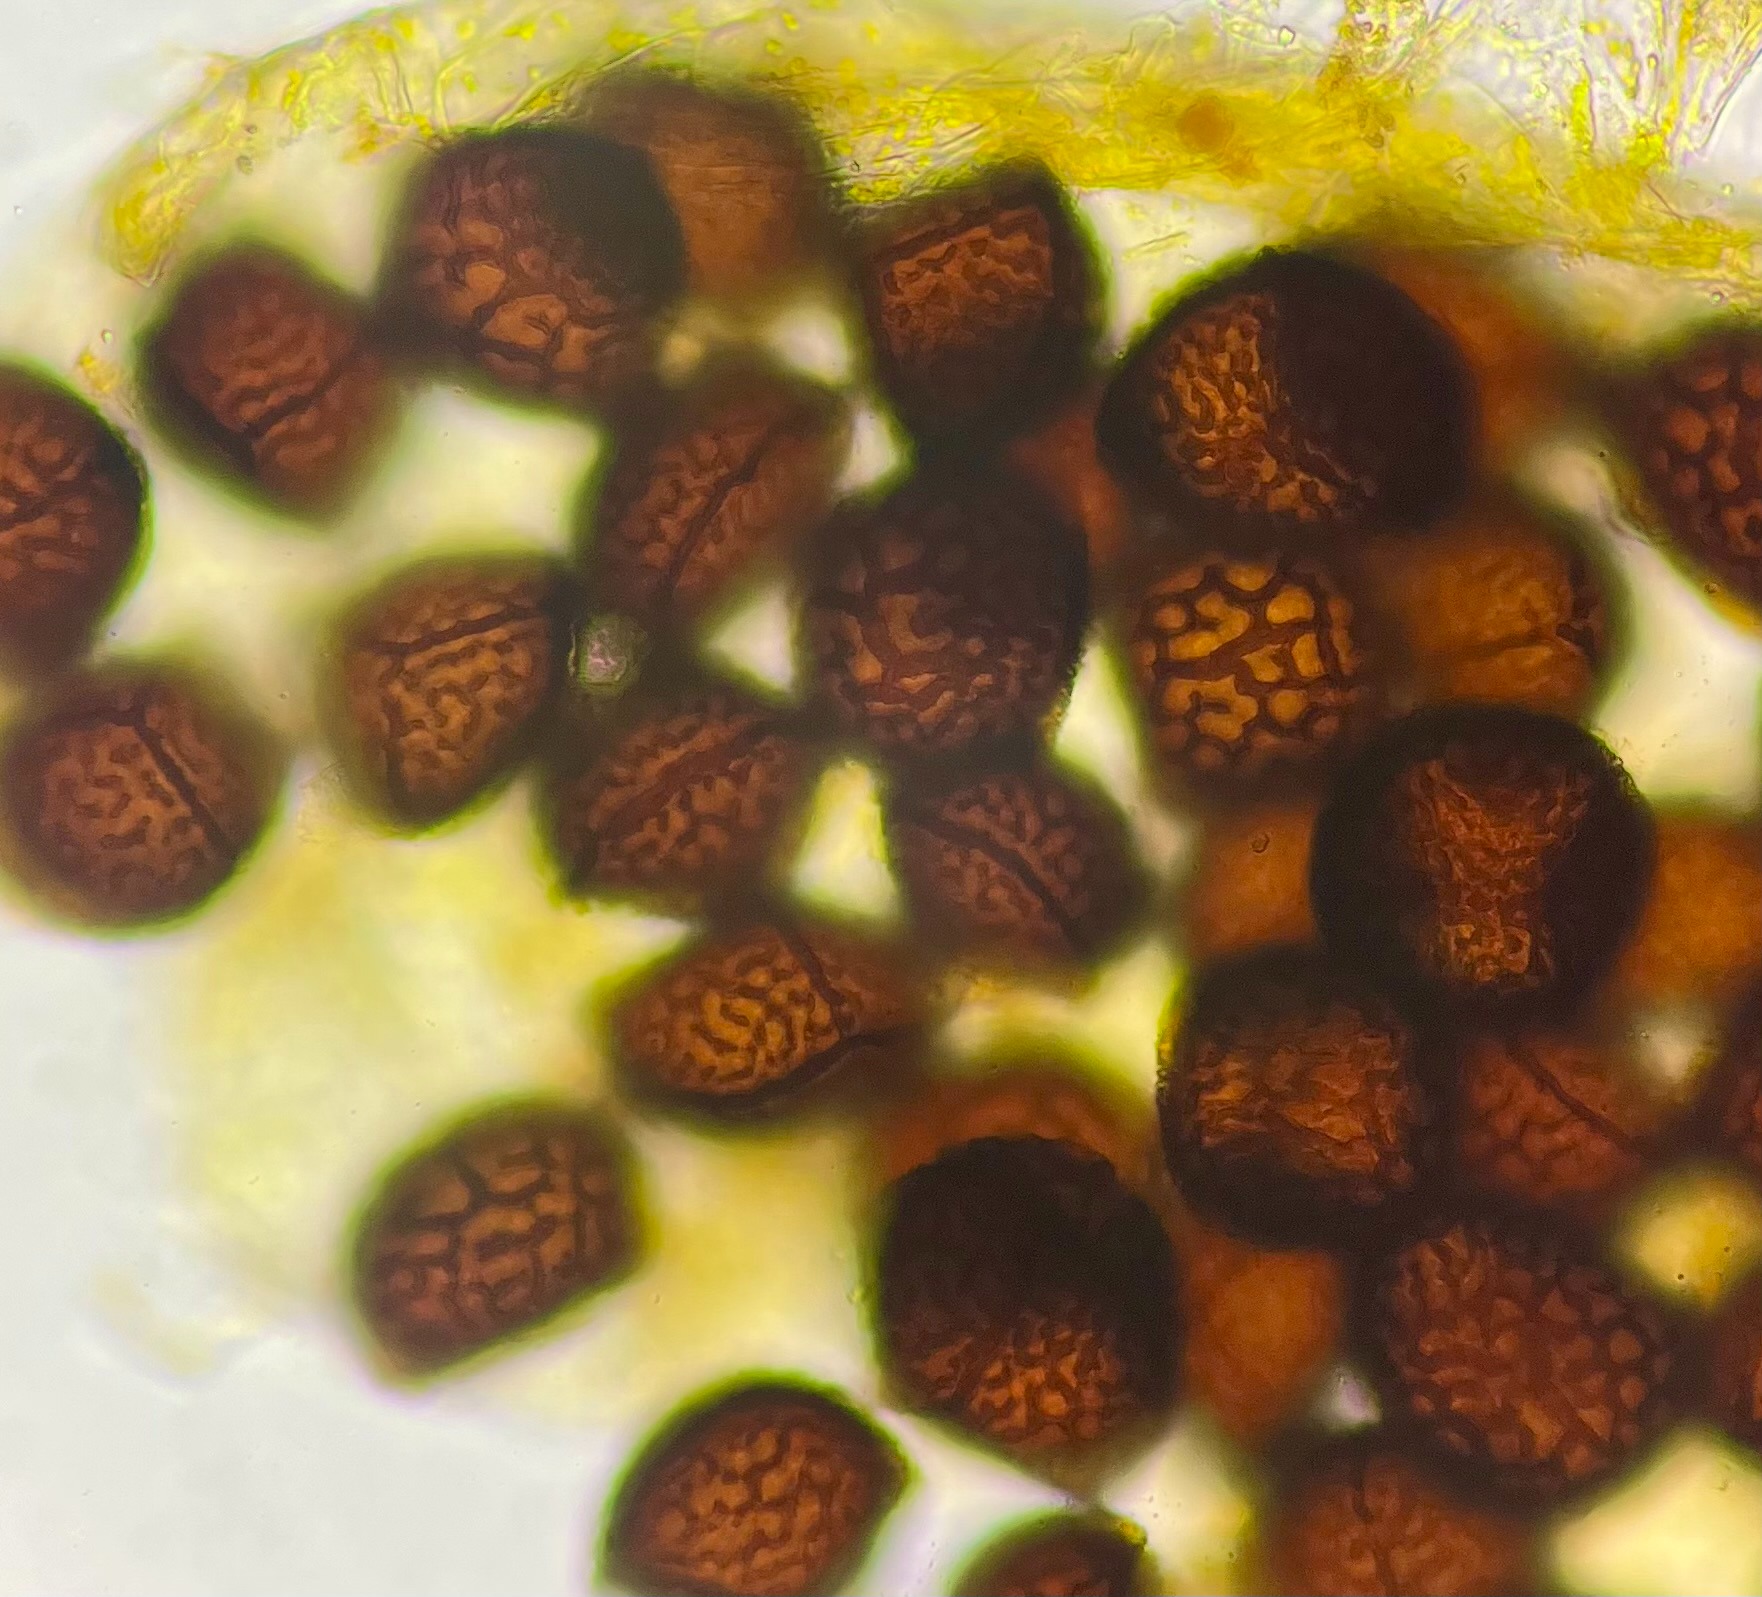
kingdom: Plantae
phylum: Marchantiophyta
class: Marchantiopsida
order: Marchantiales
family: Ricciaceae
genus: Riccia
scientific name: Riccia cavernosa
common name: Grubet stjerneløv
